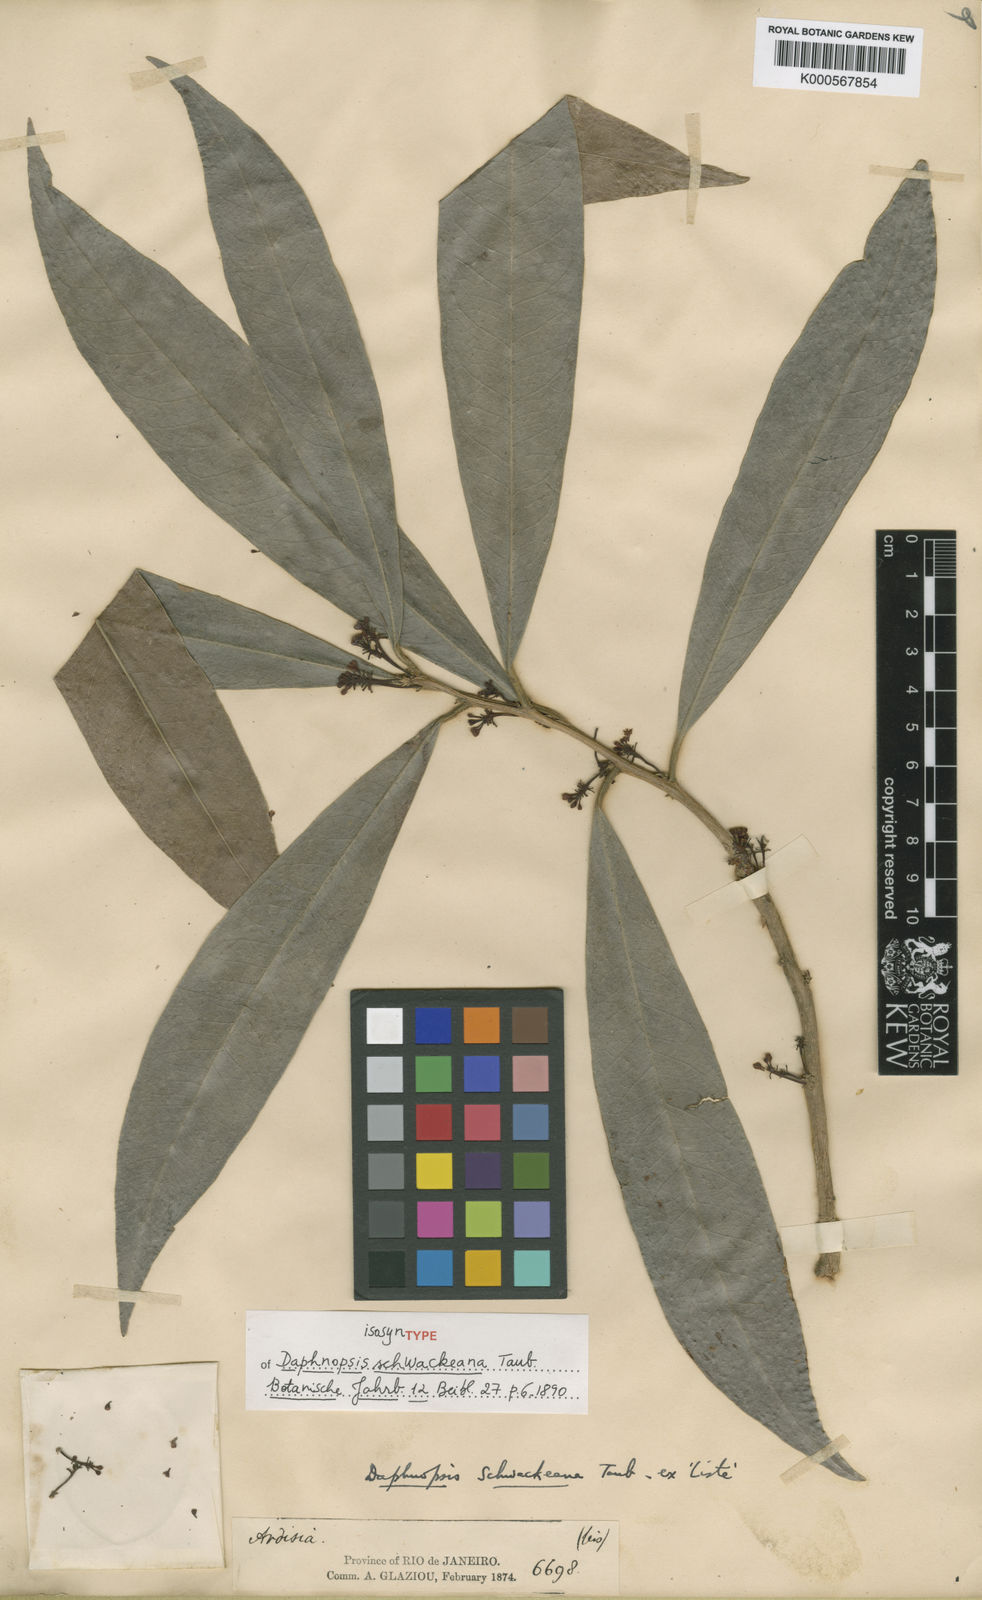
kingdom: Plantae
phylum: Tracheophyta
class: Magnoliopsida
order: Malvales
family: Thymelaeaceae
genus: Daphnopsis
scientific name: Daphnopsis schwackeana
